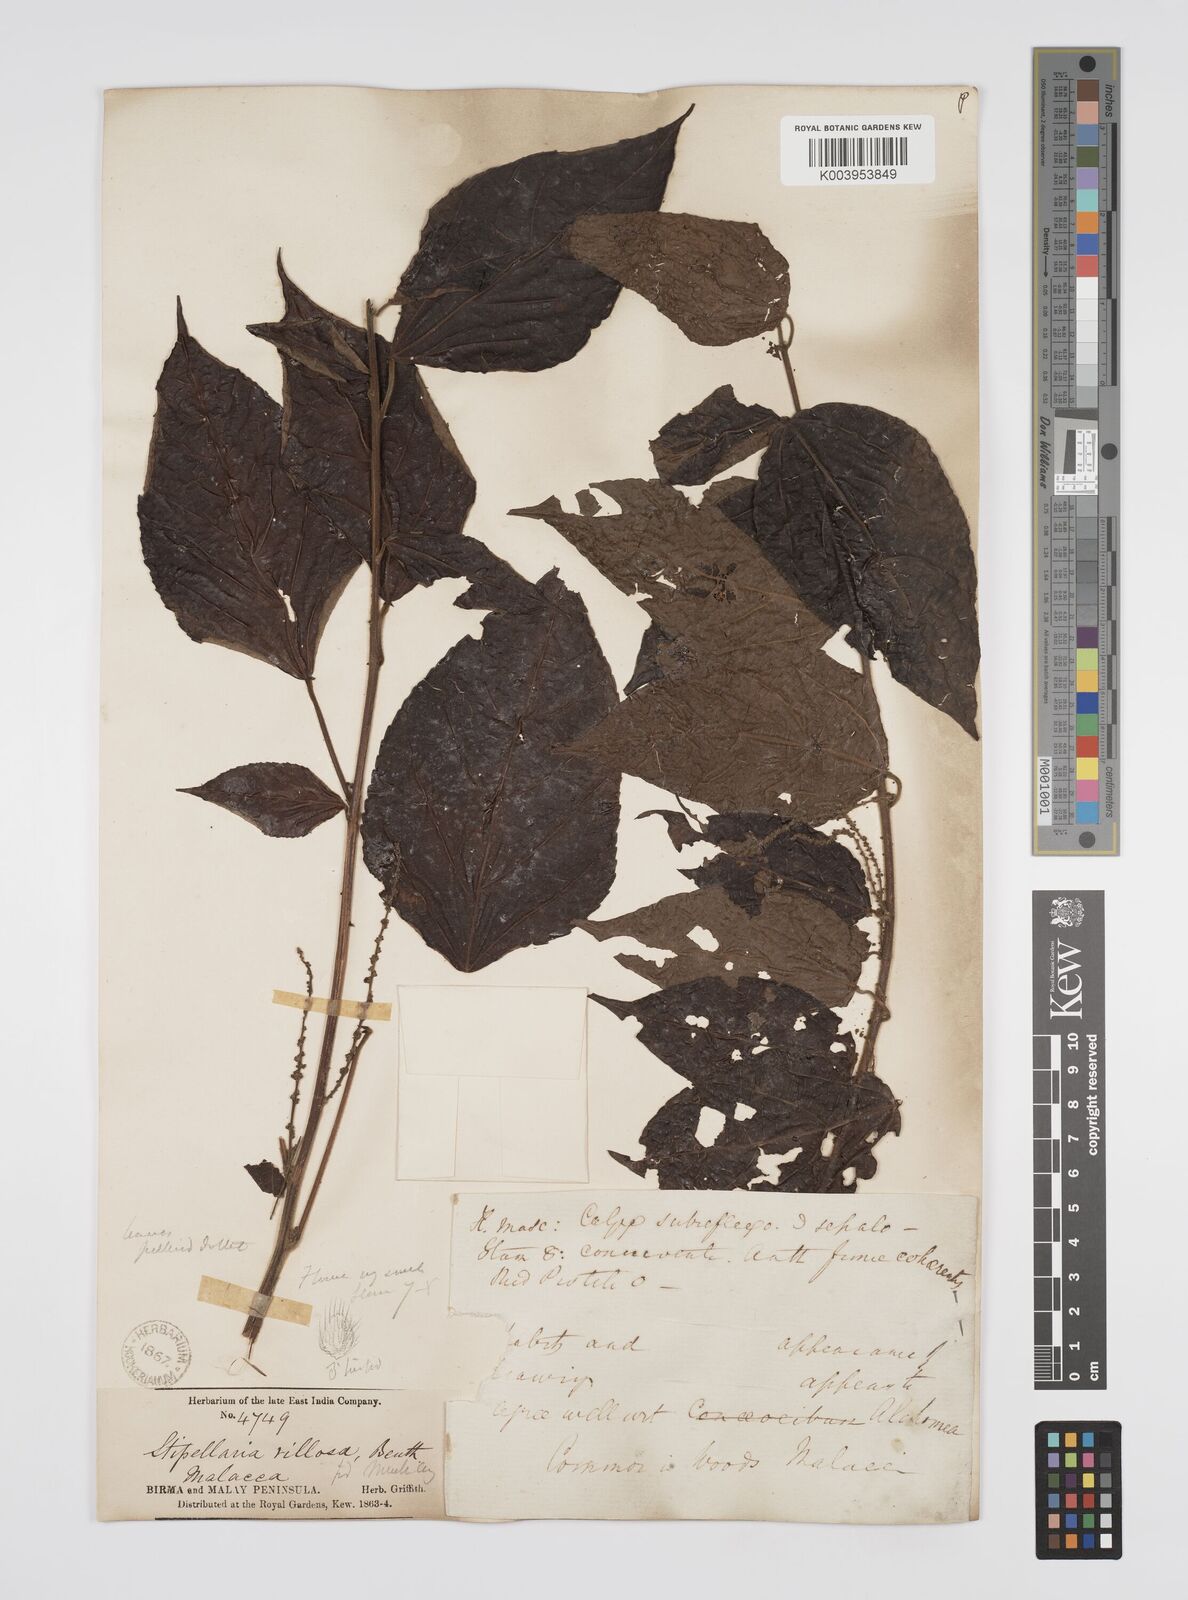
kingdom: Plantae
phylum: Tracheophyta
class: Magnoliopsida
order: Malpighiales
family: Euphorbiaceae
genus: Alchornea
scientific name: Alchornea tiliifolia
